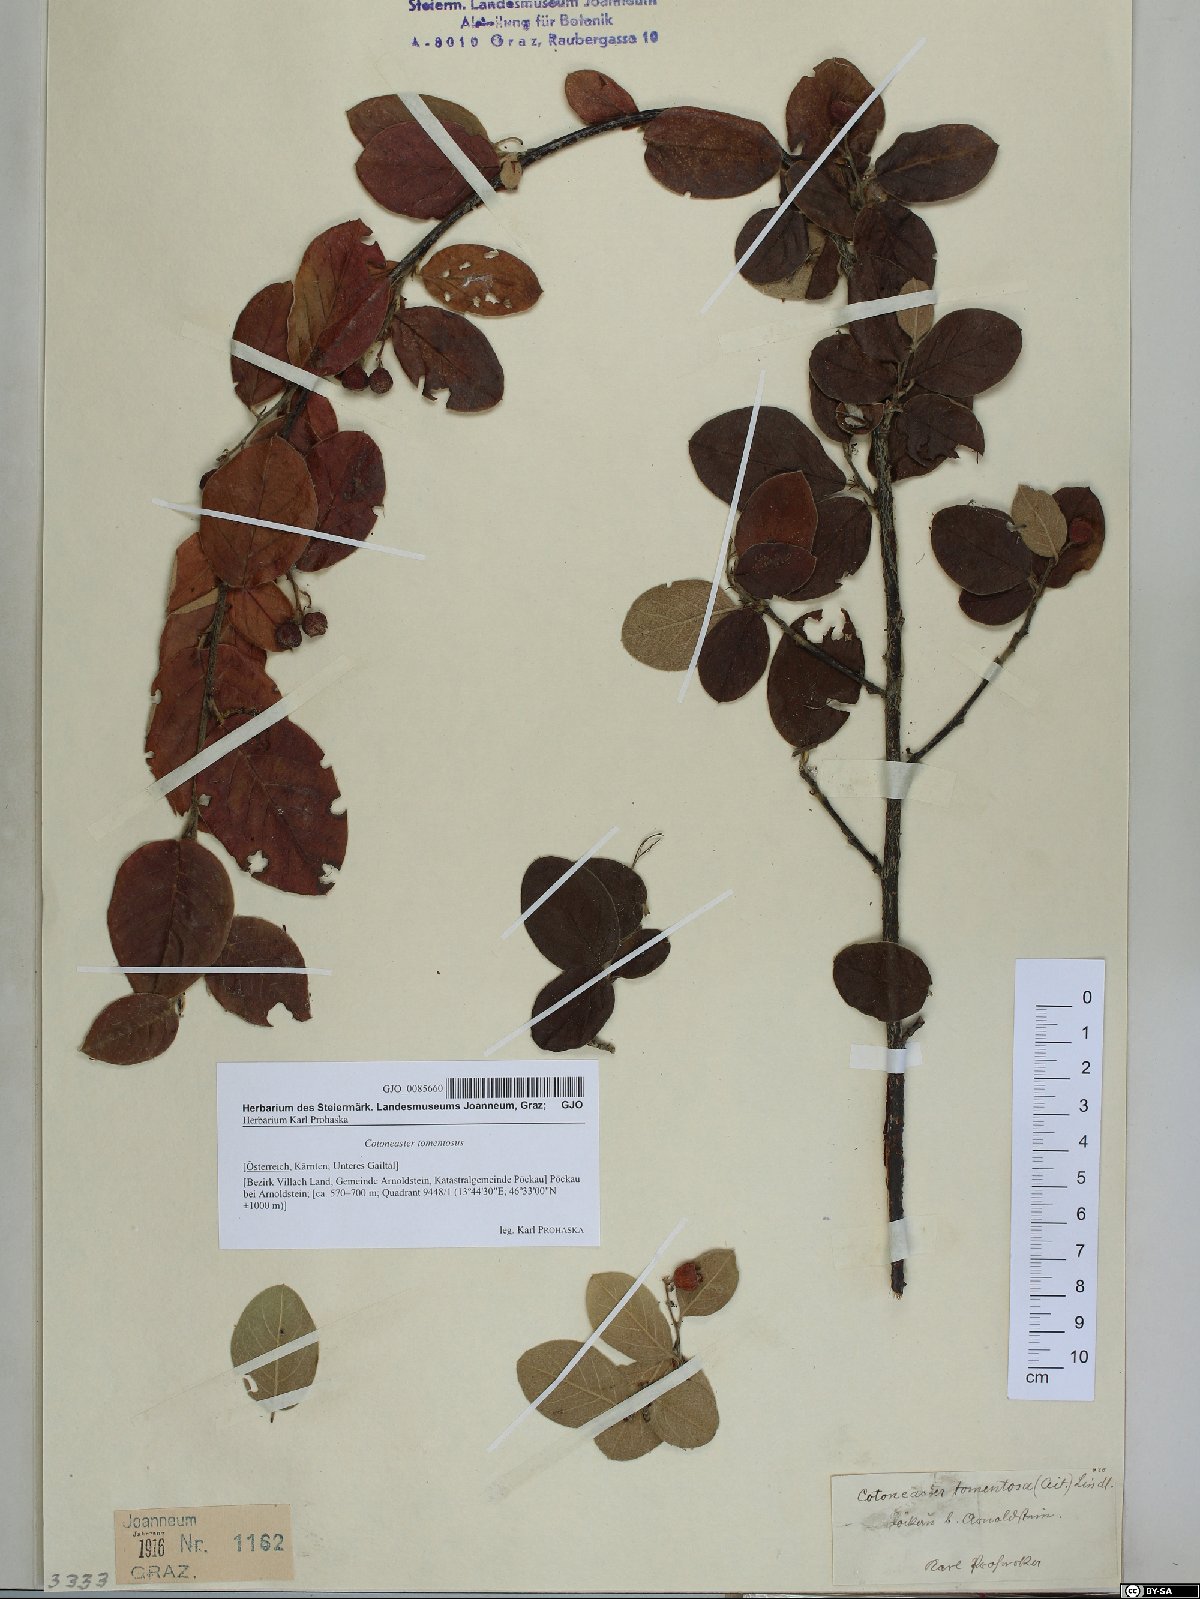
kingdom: Plantae
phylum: Tracheophyta
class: Magnoliopsida
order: Rosales
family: Rosaceae
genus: Cotoneaster
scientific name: Cotoneaster tomentosus
